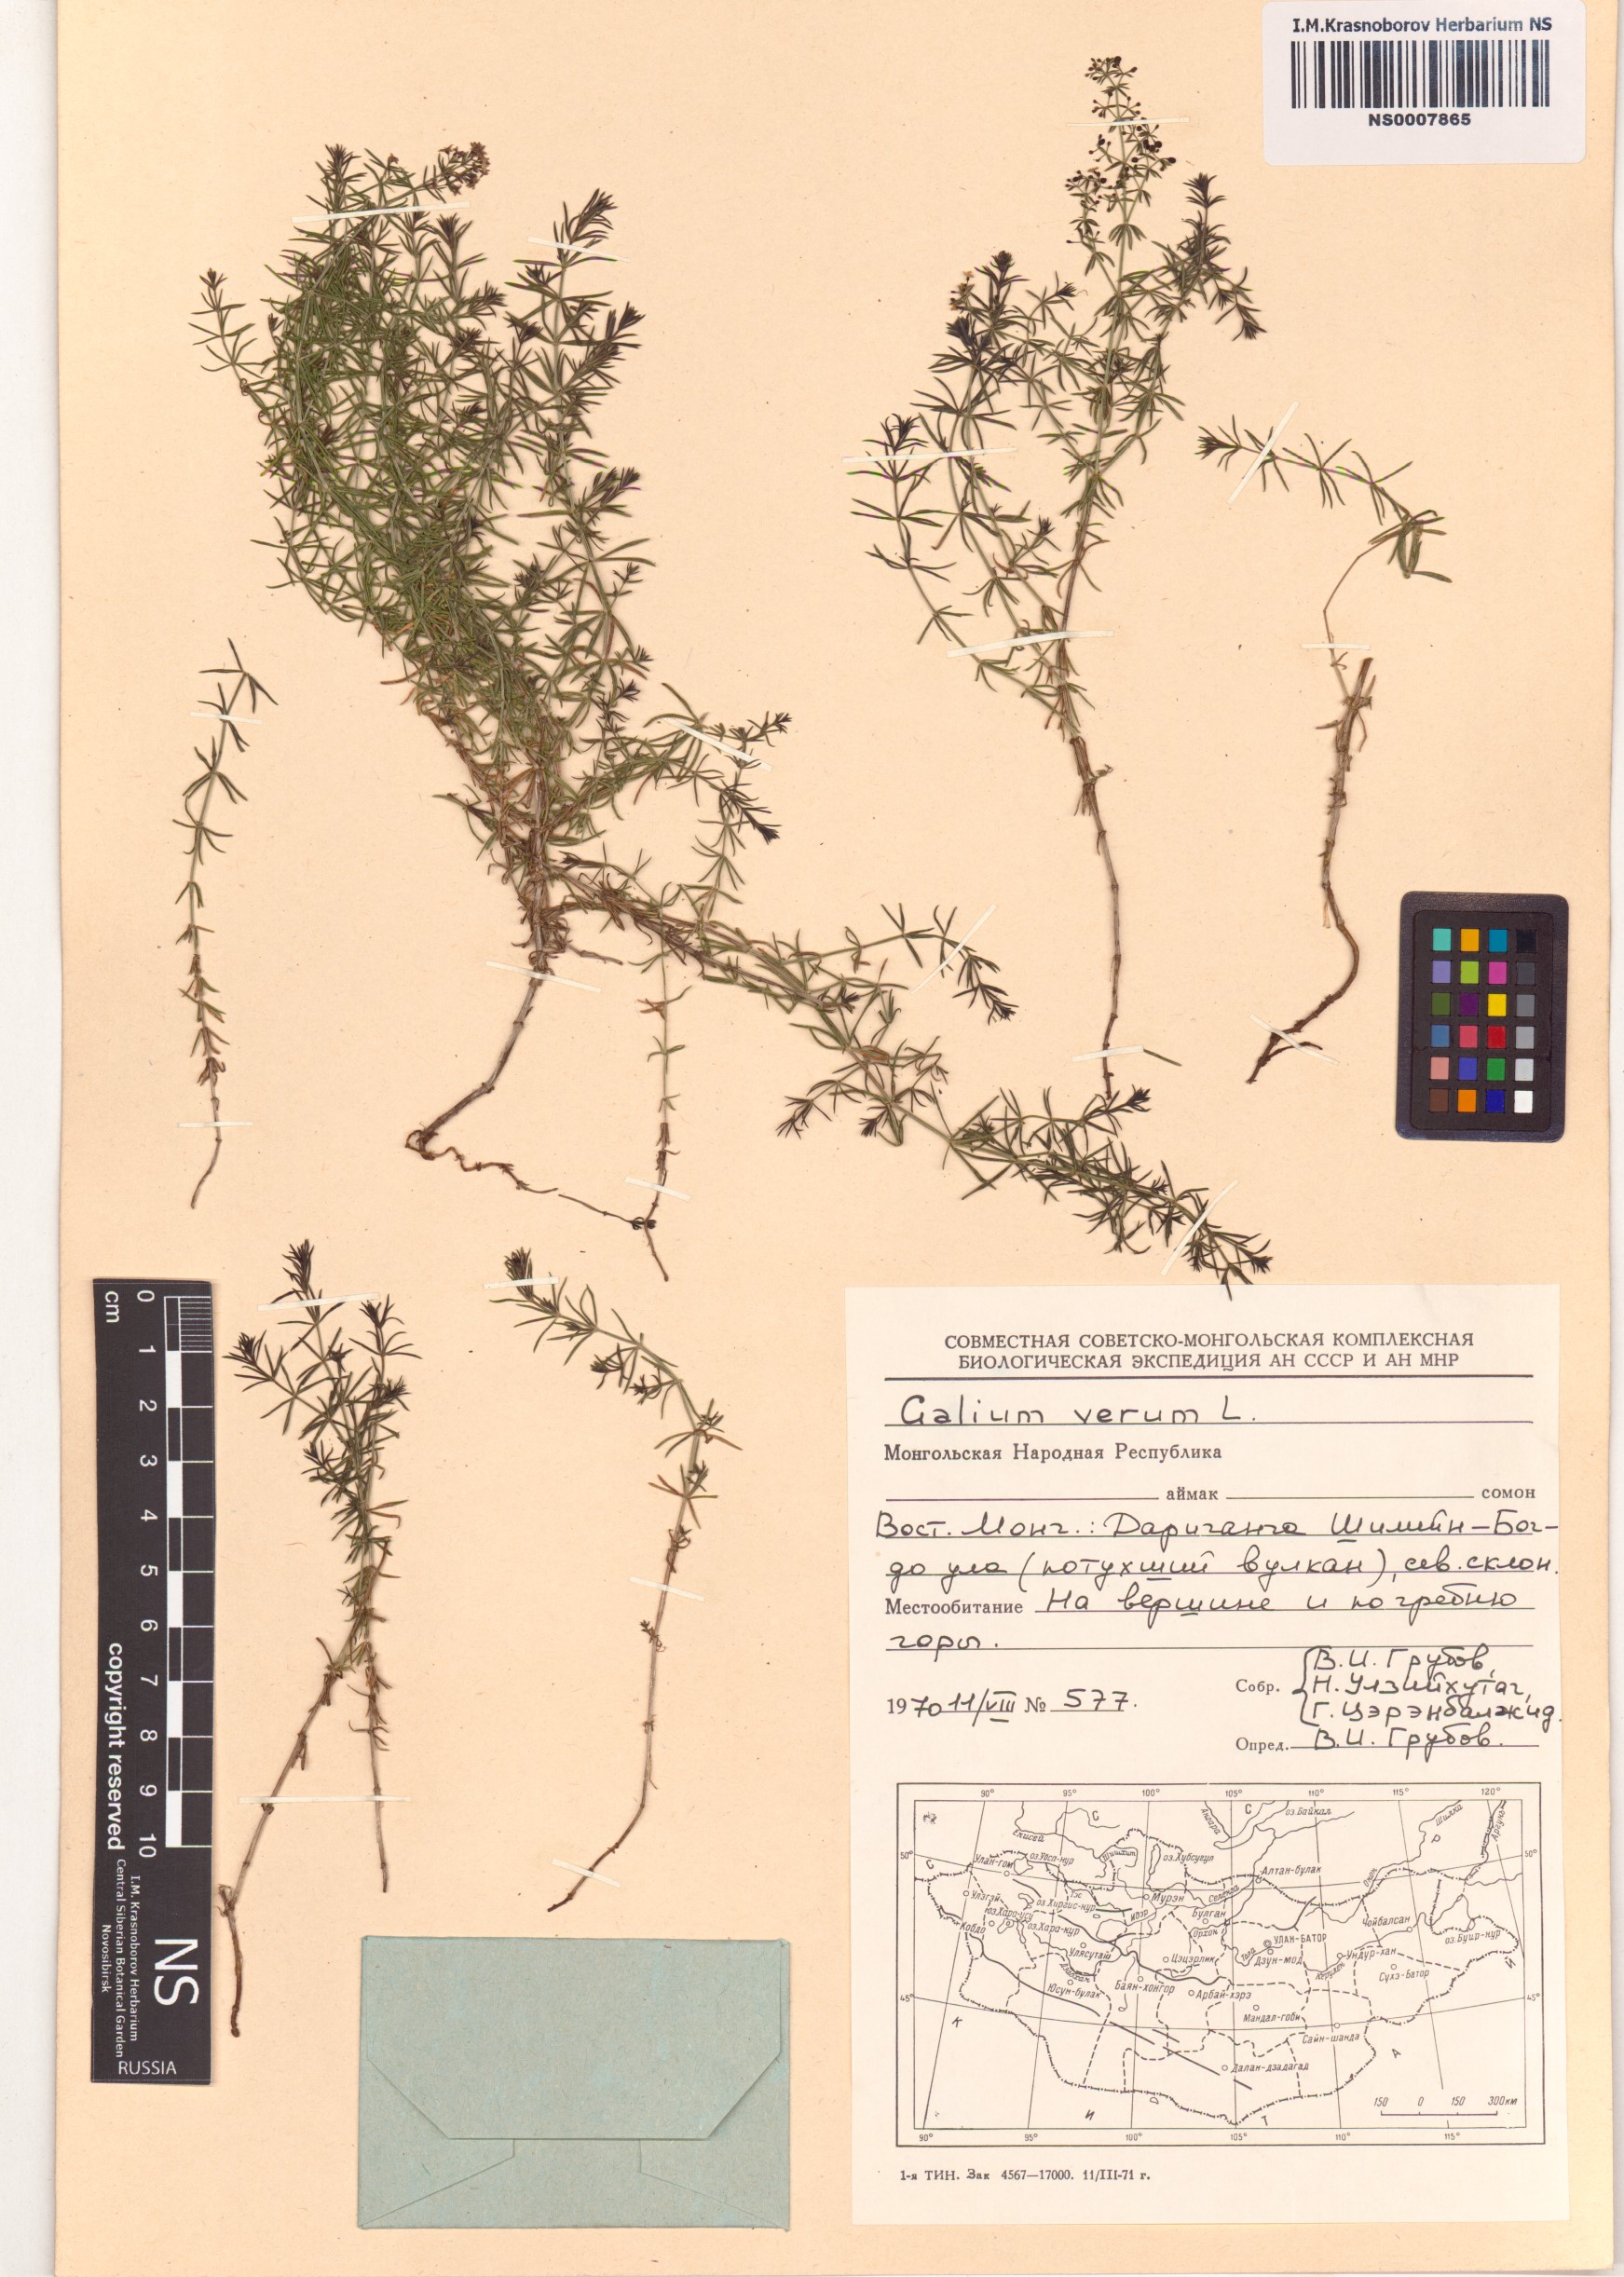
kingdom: Plantae
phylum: Tracheophyta
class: Magnoliopsida
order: Gentianales
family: Rubiaceae
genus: Galium
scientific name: Galium verum
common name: Lady's bedstraw
